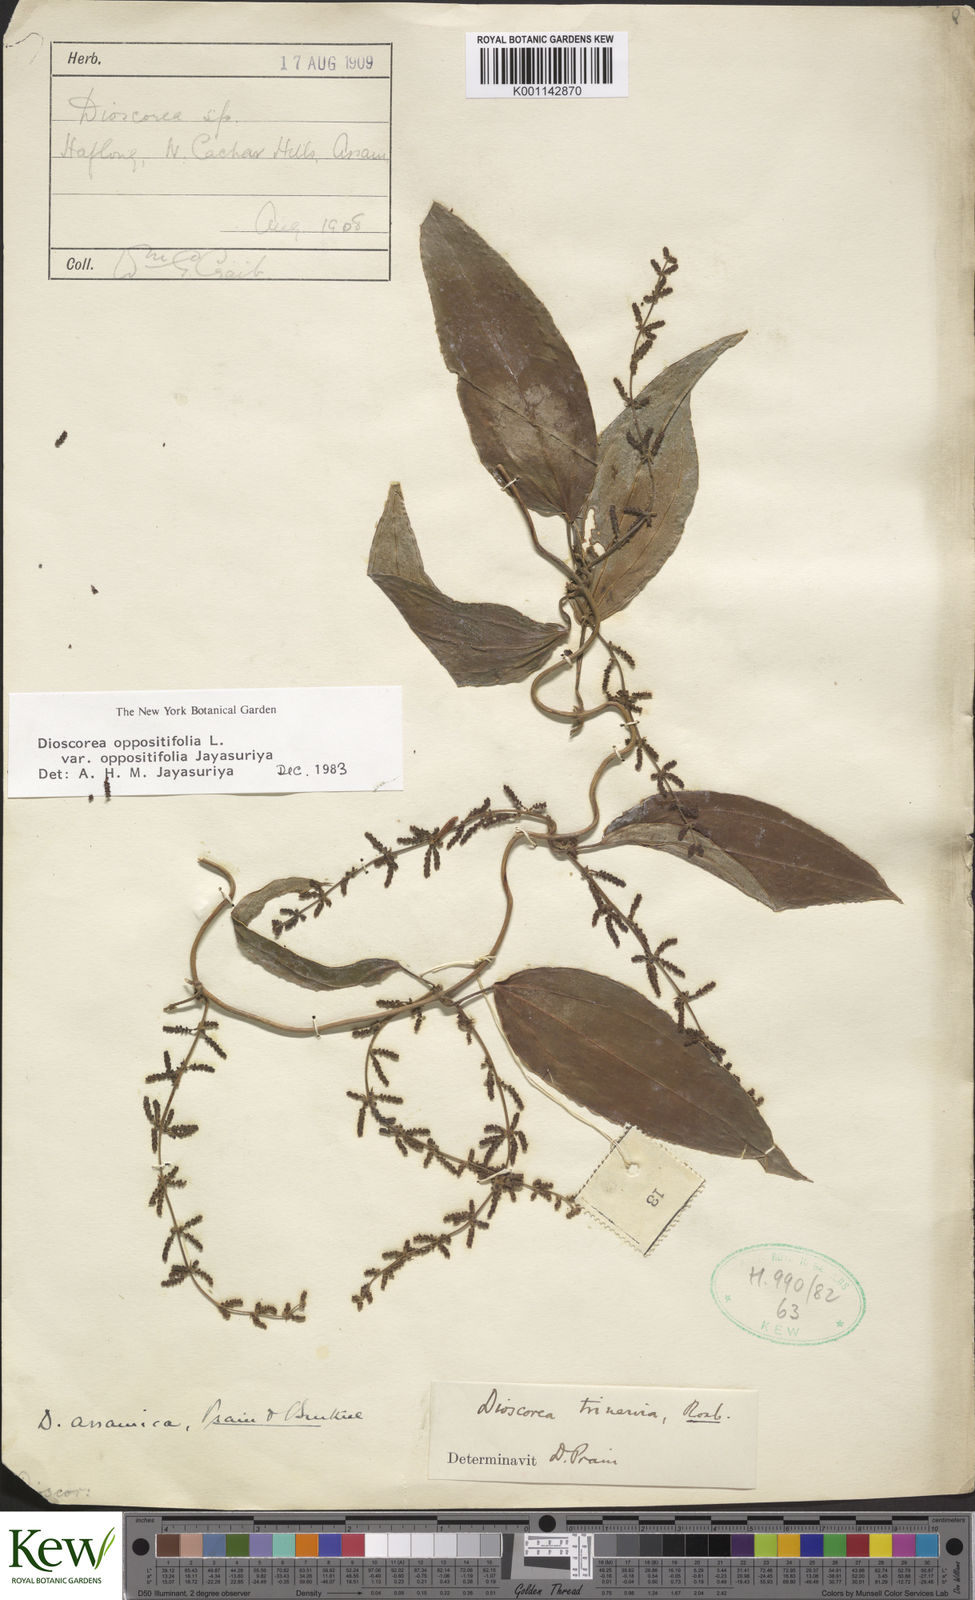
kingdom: Plantae
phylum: Tracheophyta
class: Liliopsida
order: Dioscoreales
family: Dioscoreaceae
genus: Dioscorea
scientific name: Dioscorea oppositifolia
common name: Chinese yam
